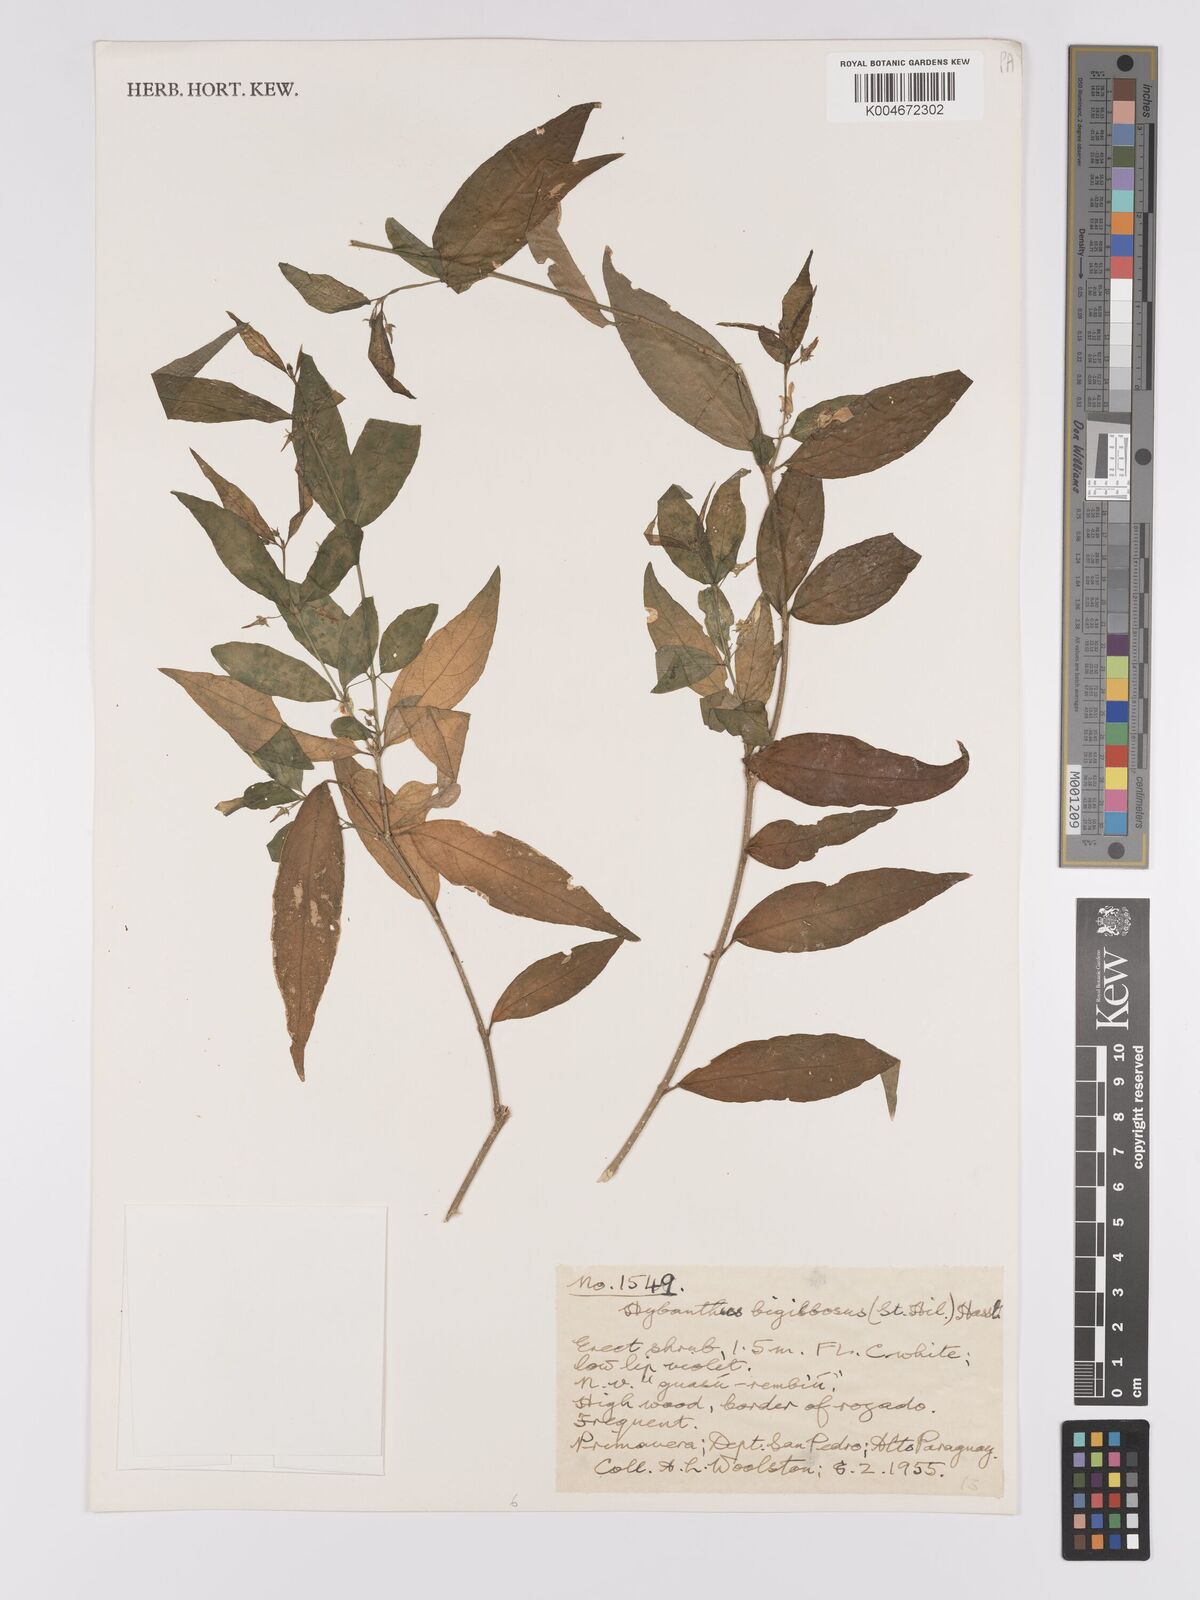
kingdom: Plantae
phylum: Tracheophyta
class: Magnoliopsida
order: Malpighiales
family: Violaceae
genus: Pombalia
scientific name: Pombalia bigibbosa
